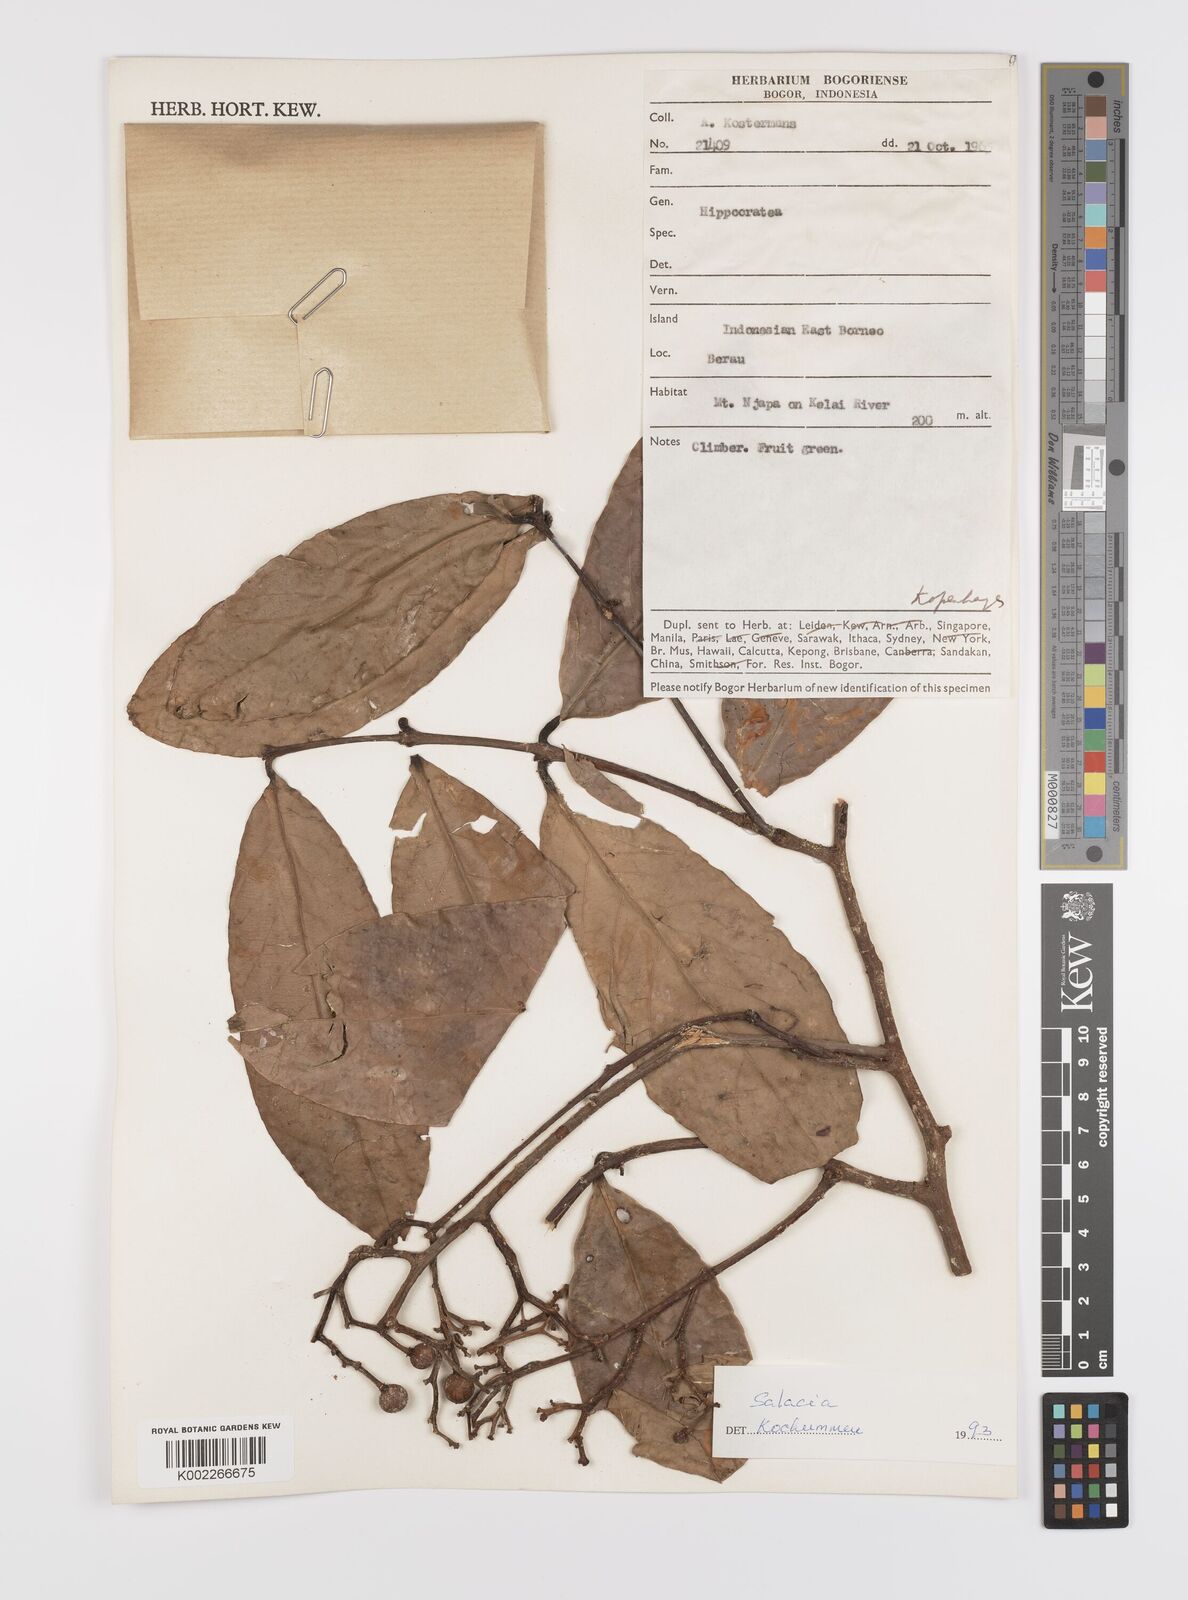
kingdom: Plantae
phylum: Tracheophyta
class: Magnoliopsida
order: Celastrales
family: Celastraceae
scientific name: Celastraceae
